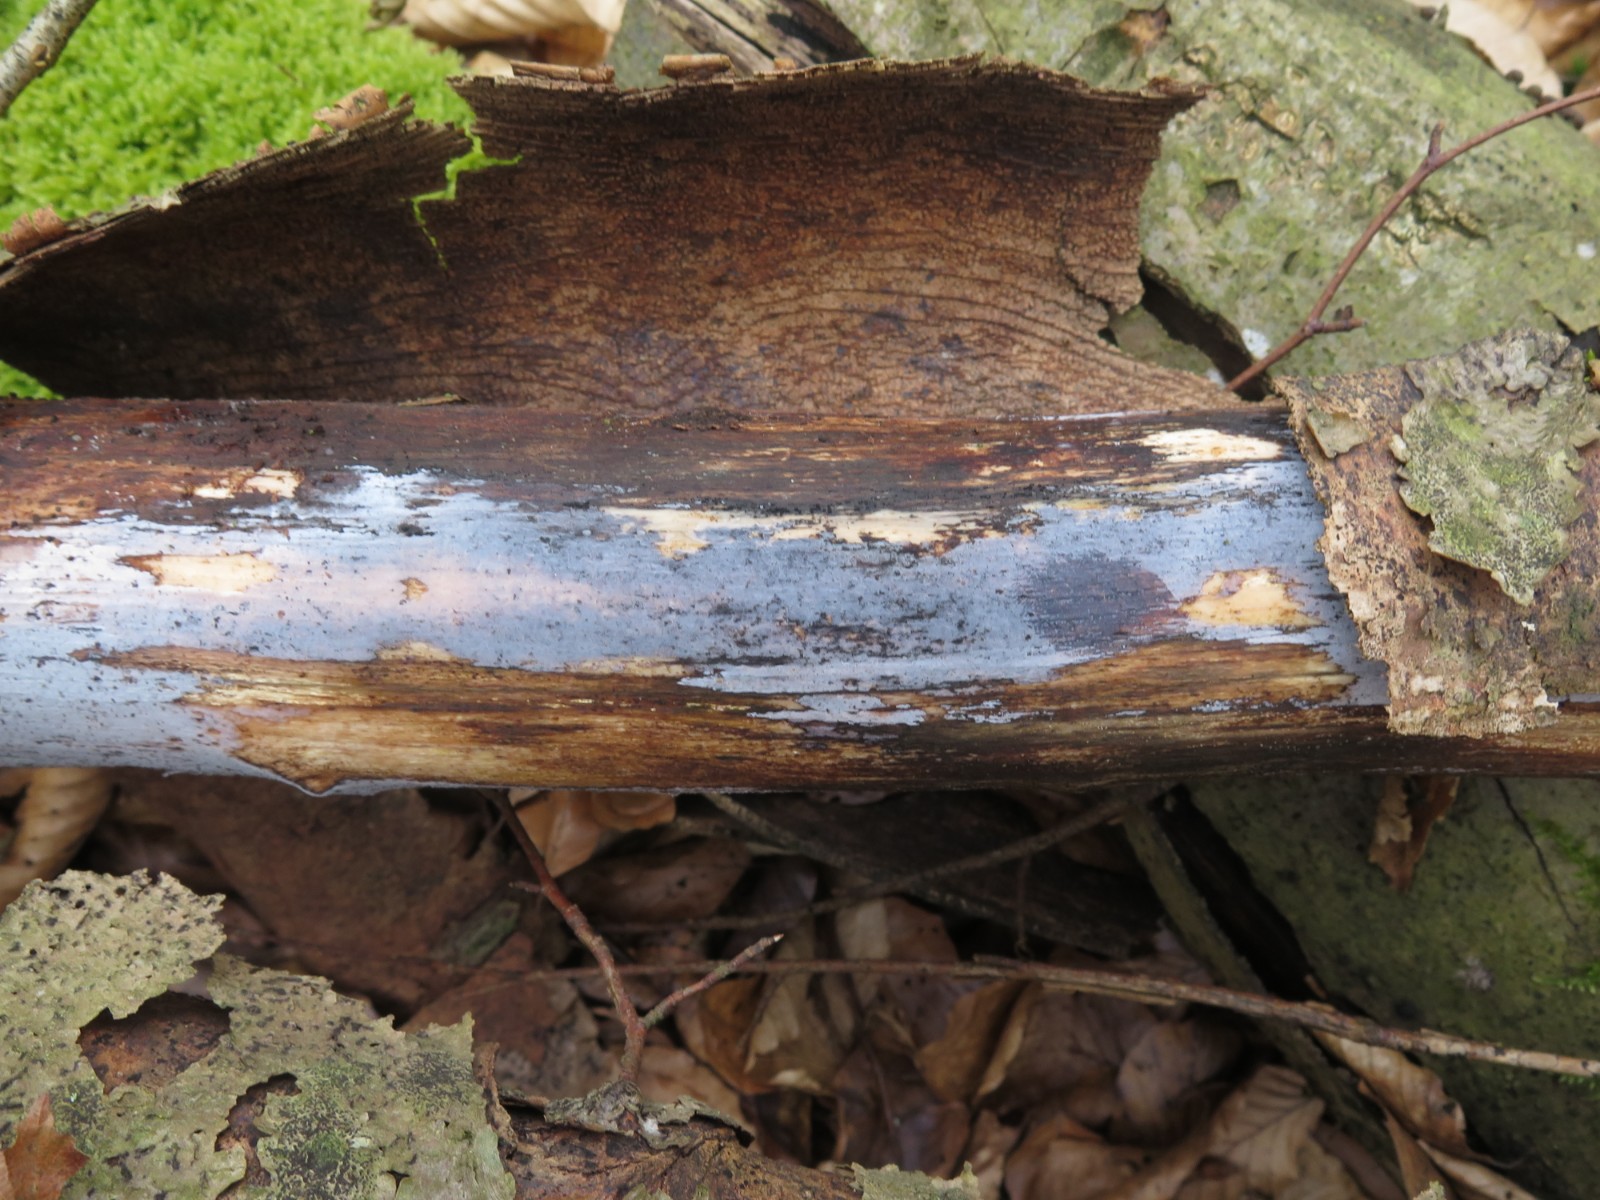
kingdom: Fungi
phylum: Basidiomycota
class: Tremellomycetes
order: Tremellales
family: Exidiaceae
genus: Exidiopsis
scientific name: Exidiopsis effusa
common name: smuk bævrehinde
